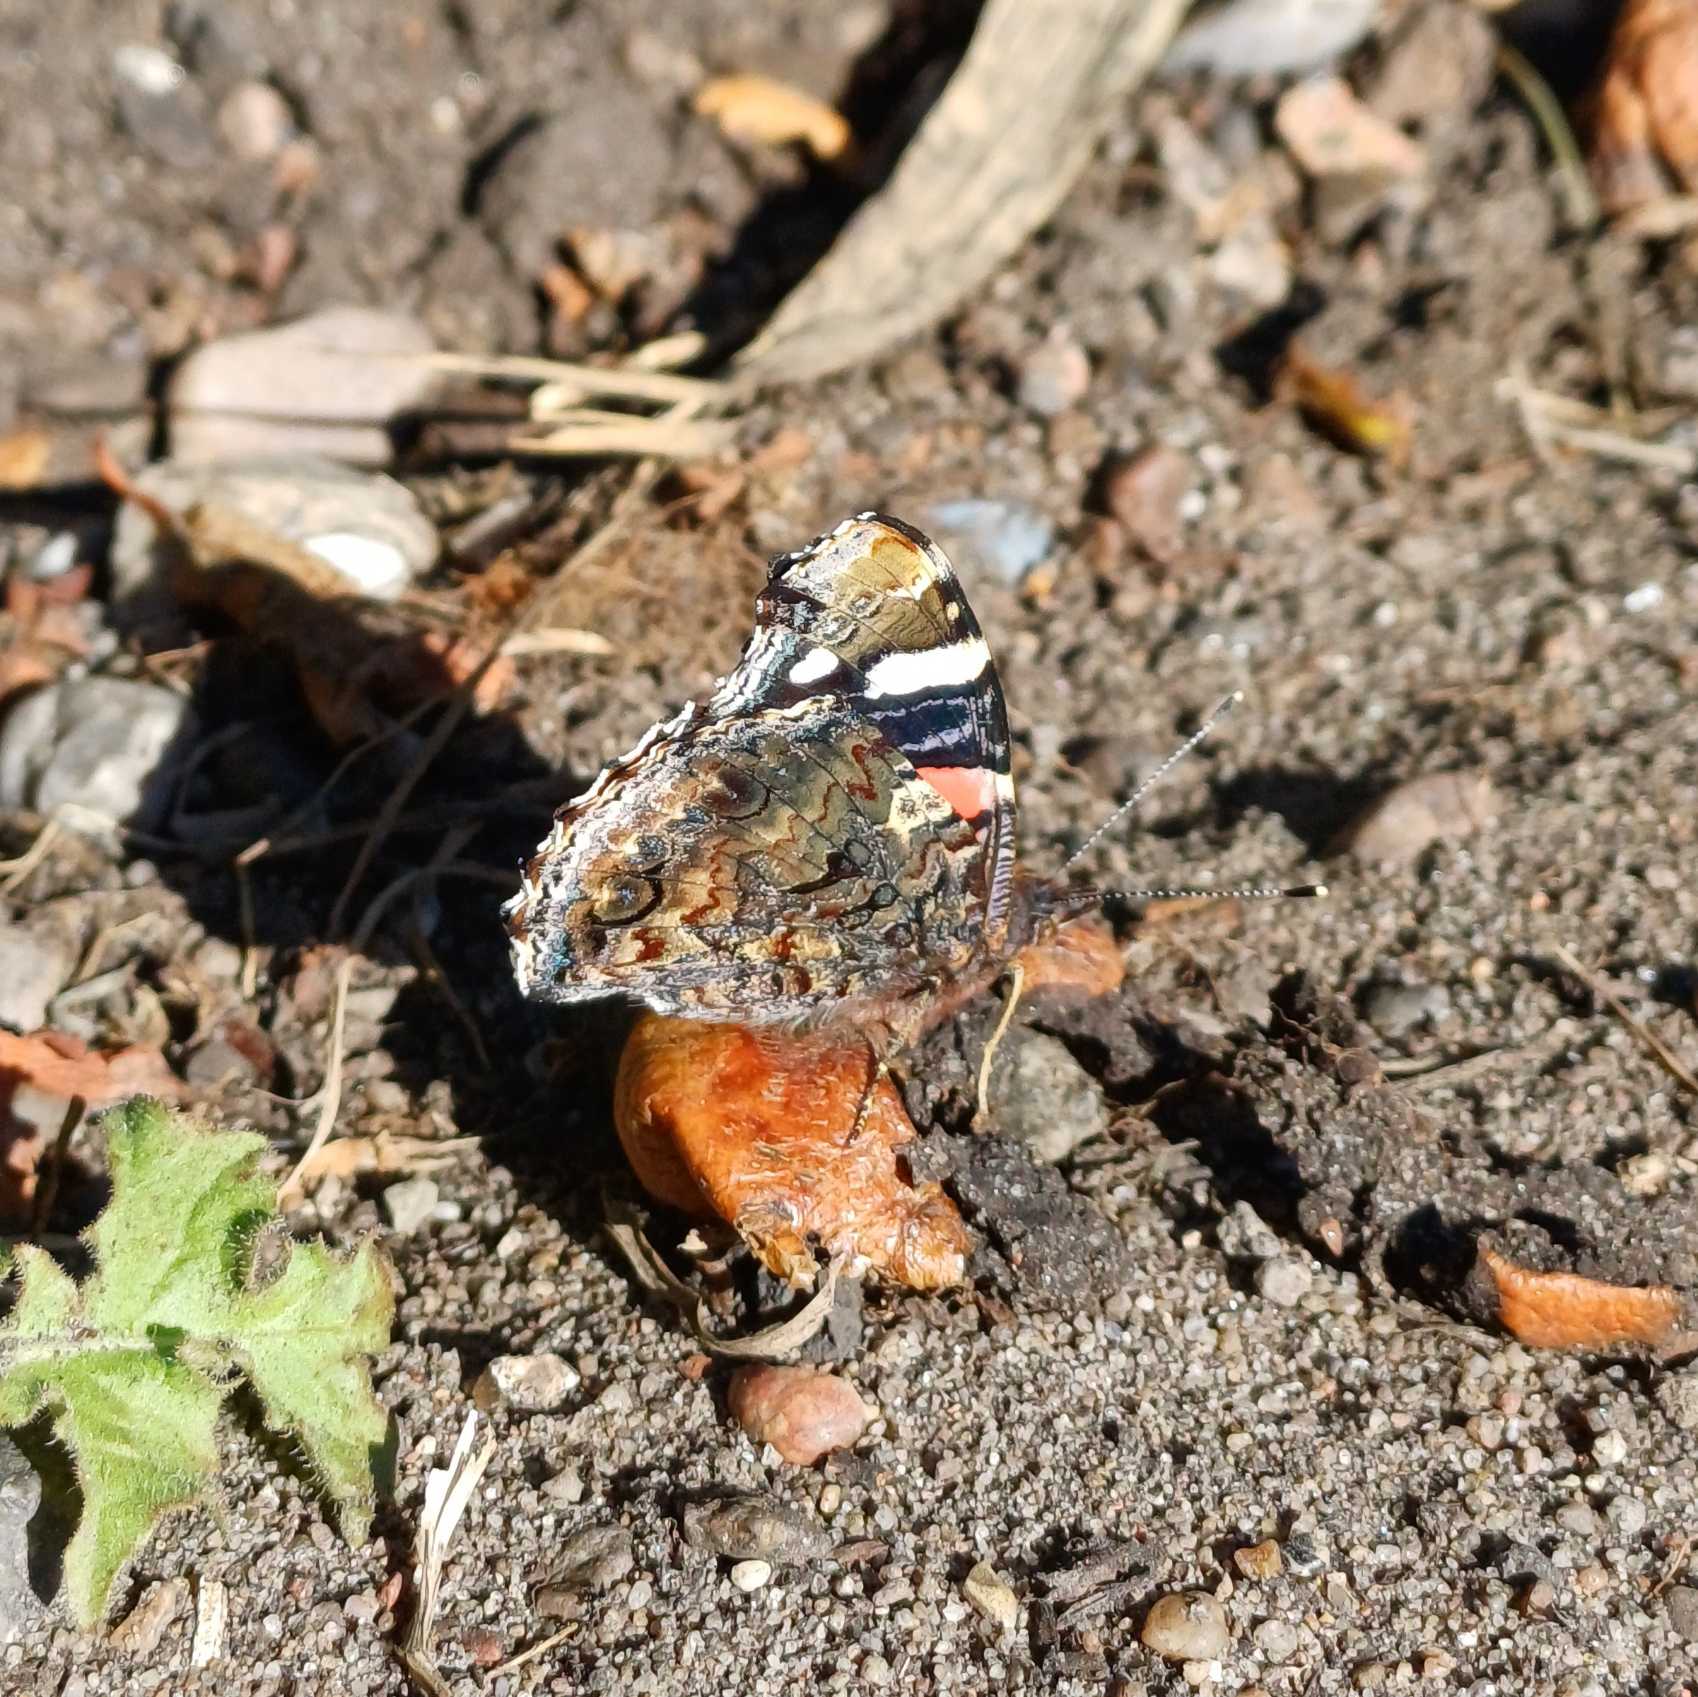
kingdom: Animalia
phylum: Arthropoda
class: Insecta
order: Lepidoptera
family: Nymphalidae
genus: Vanessa
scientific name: Vanessa atalanta
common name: Admiral
